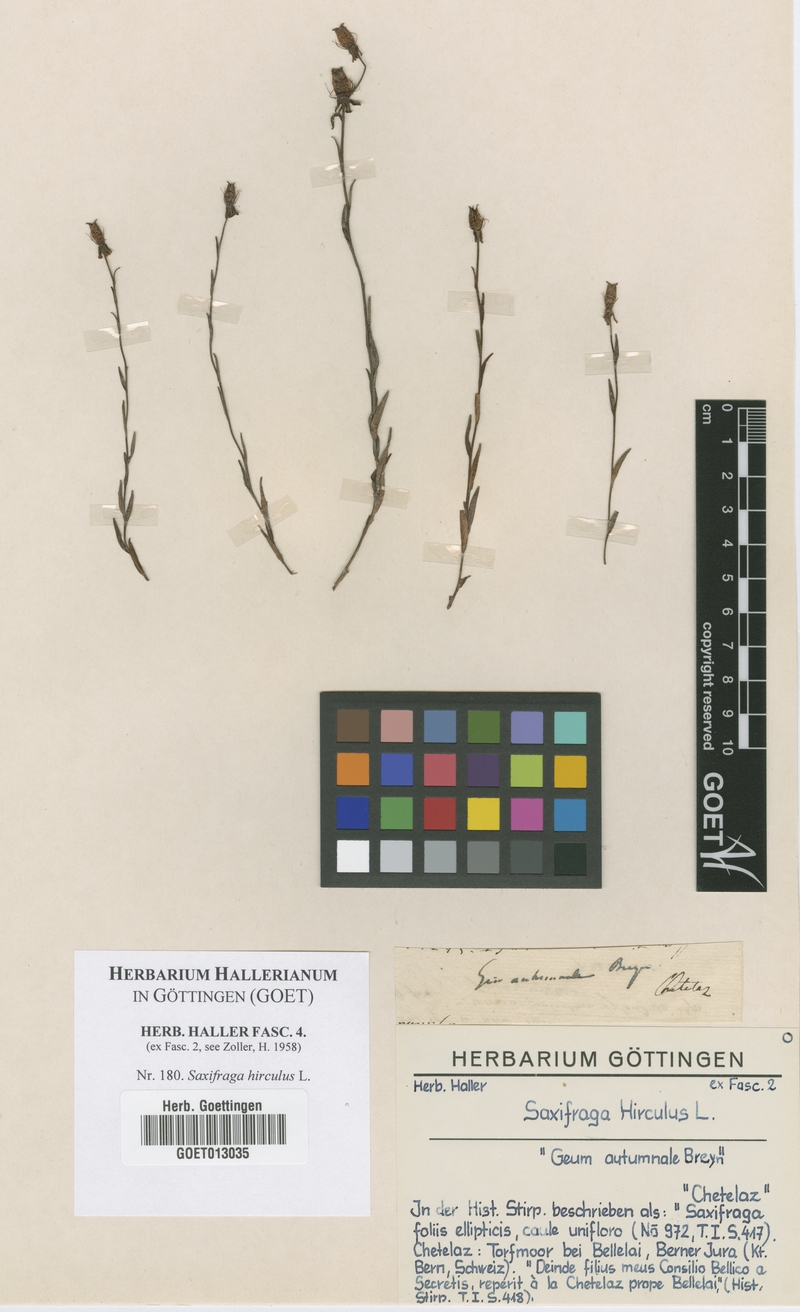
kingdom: Plantae
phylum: Tracheophyta
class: Magnoliopsida
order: Saxifragales
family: Saxifragaceae
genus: Saxifraga
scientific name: Saxifraga hirculus
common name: Yellow marsh saxifrage
